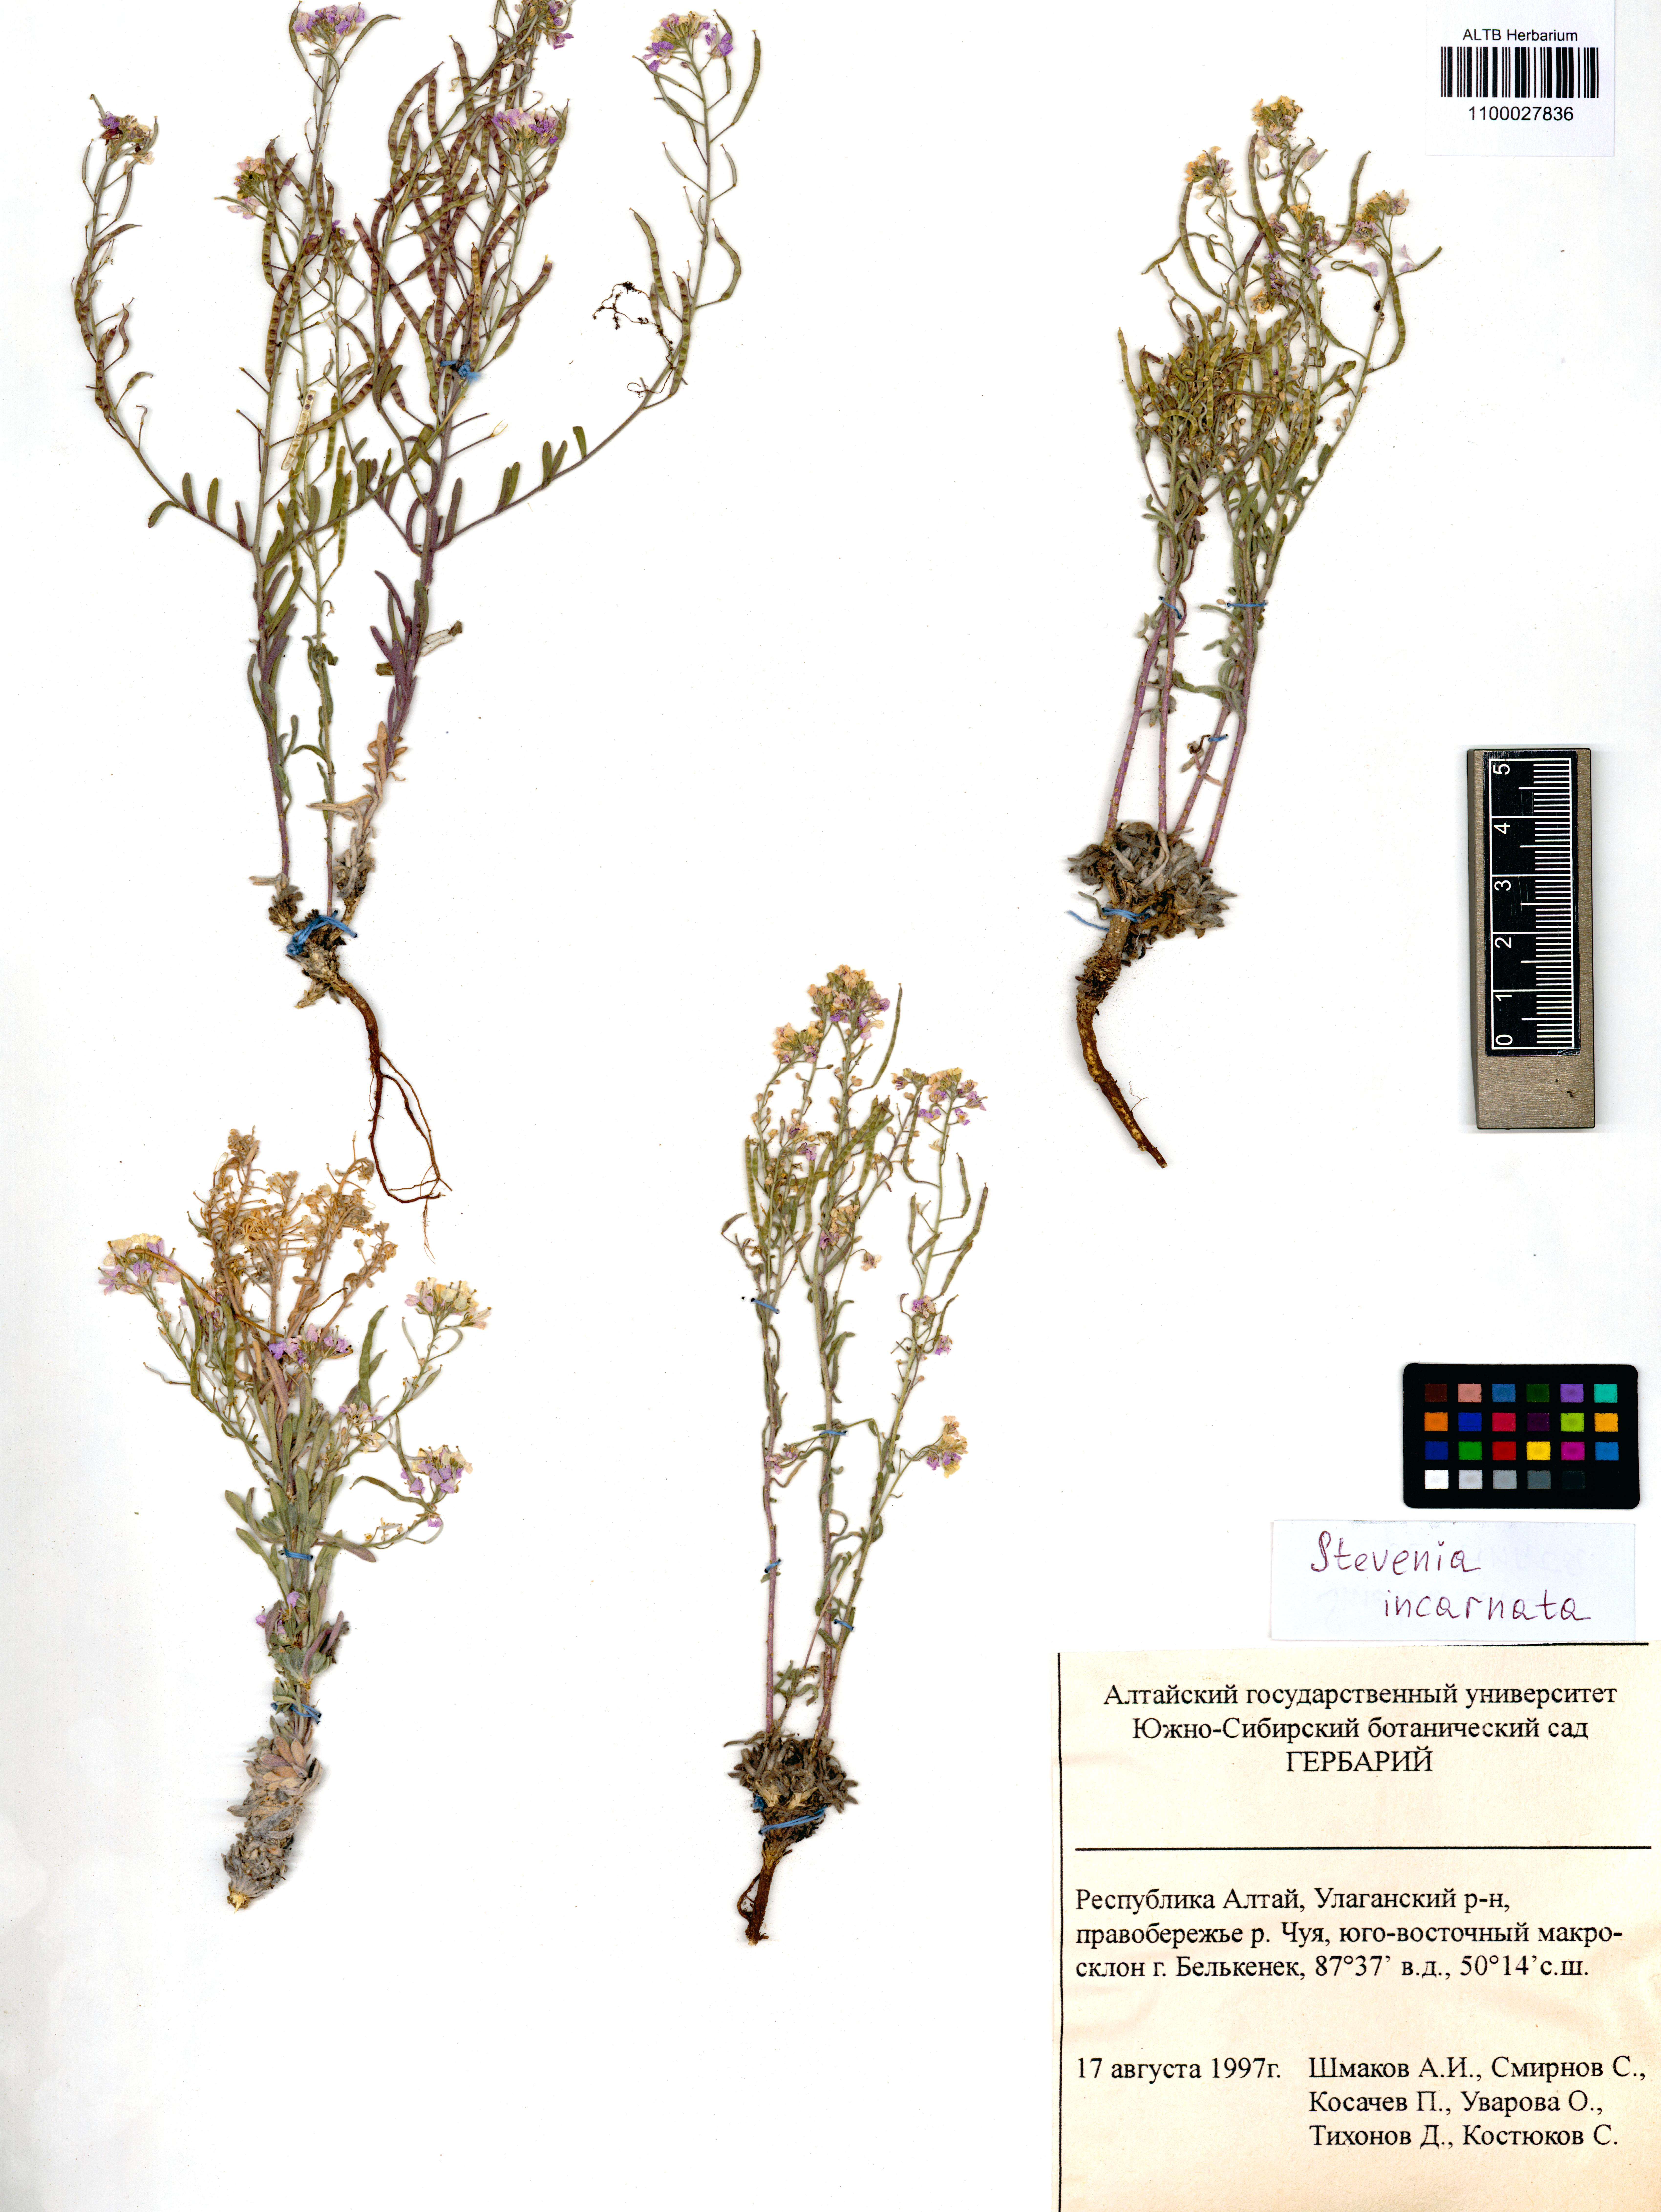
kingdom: Plantae
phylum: Tracheophyta
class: Magnoliopsida
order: Brassicales
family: Brassicaceae
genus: Stevenia
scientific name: Stevenia incarnata
